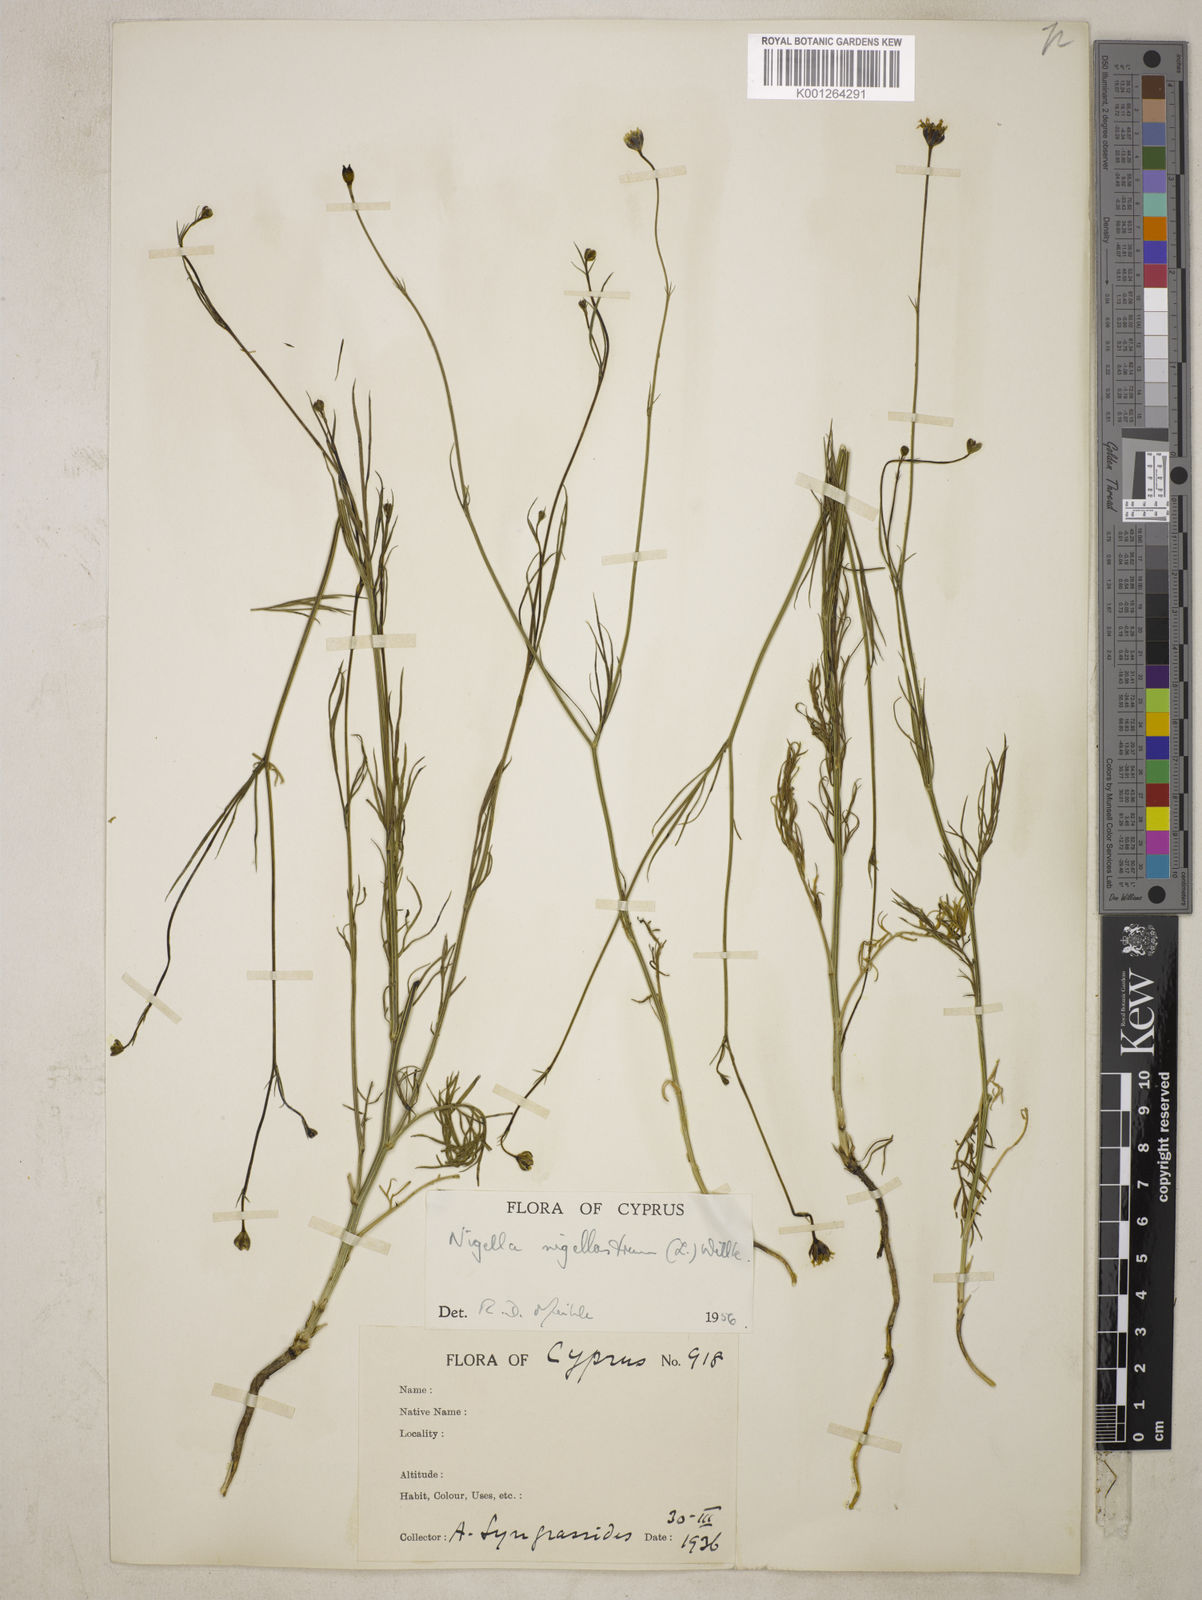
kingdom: Plantae
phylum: Tracheophyta
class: Magnoliopsida
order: Ranunculales
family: Ranunculaceae
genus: Garidella
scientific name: Garidella nigellastrum
